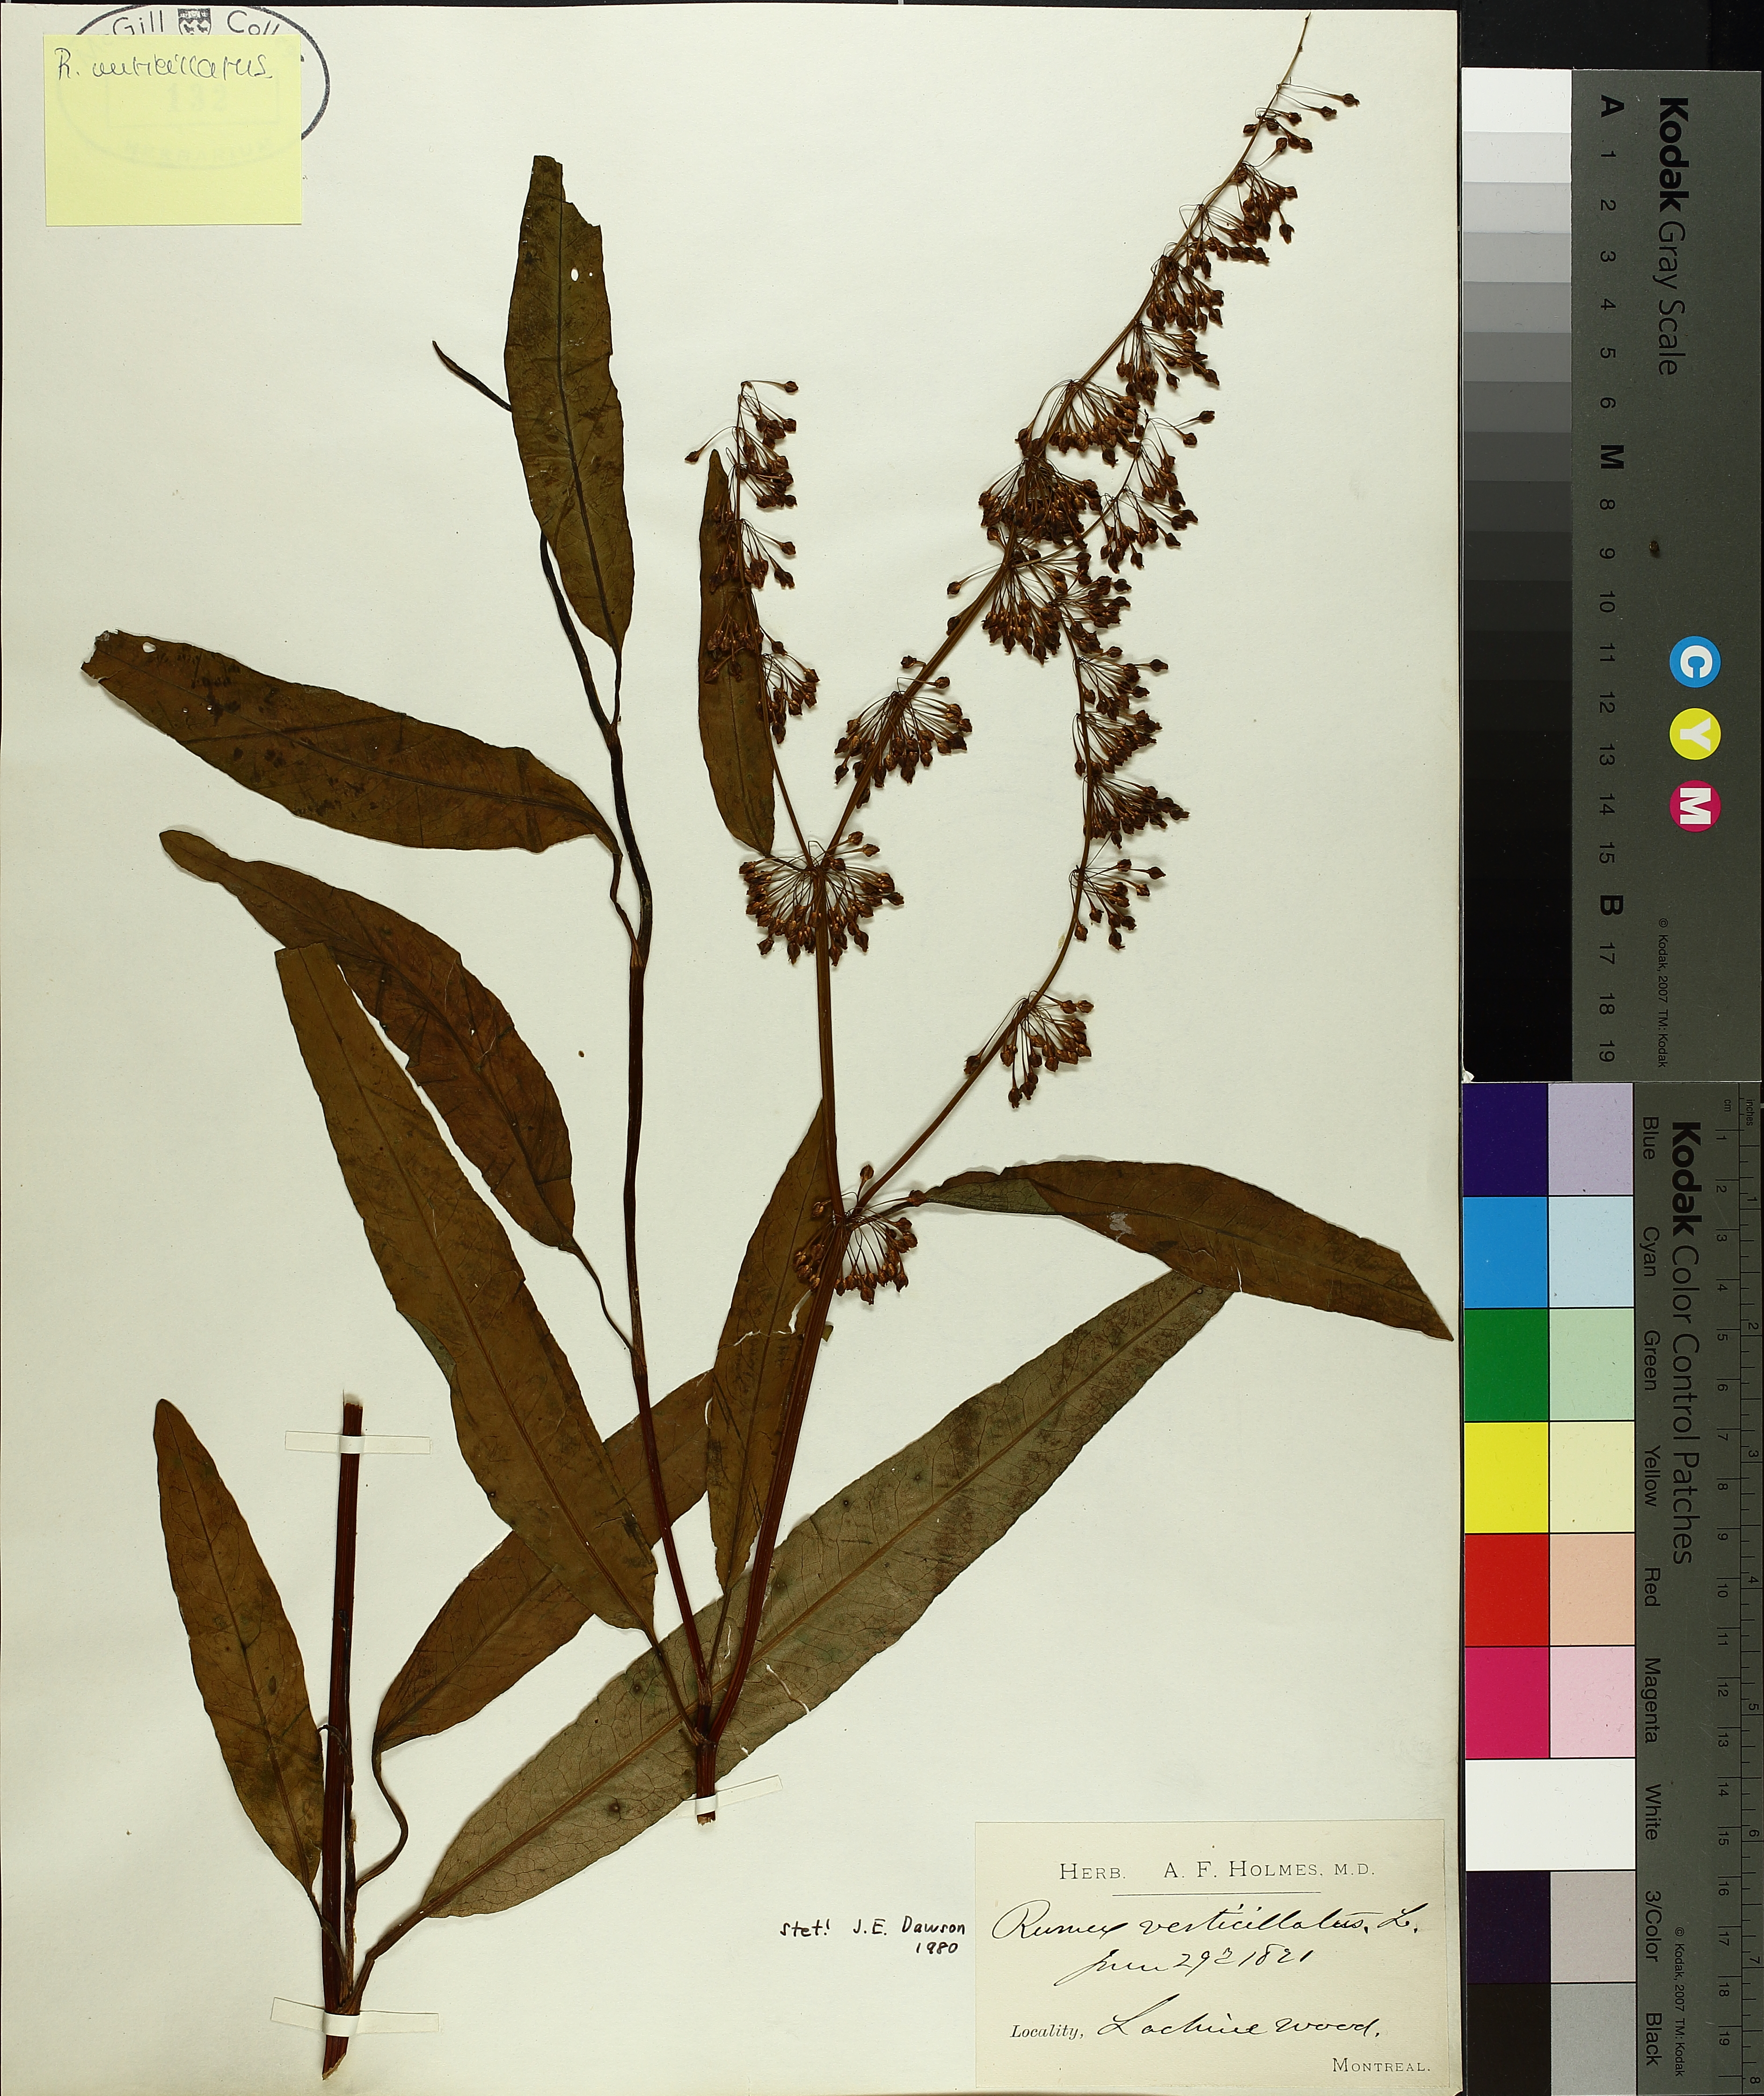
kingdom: Plantae
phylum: Tracheophyta
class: Magnoliopsida
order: Caryophyllales
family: Polygonaceae
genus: Rumex
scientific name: Rumex verticillatus
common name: Swamp dock
